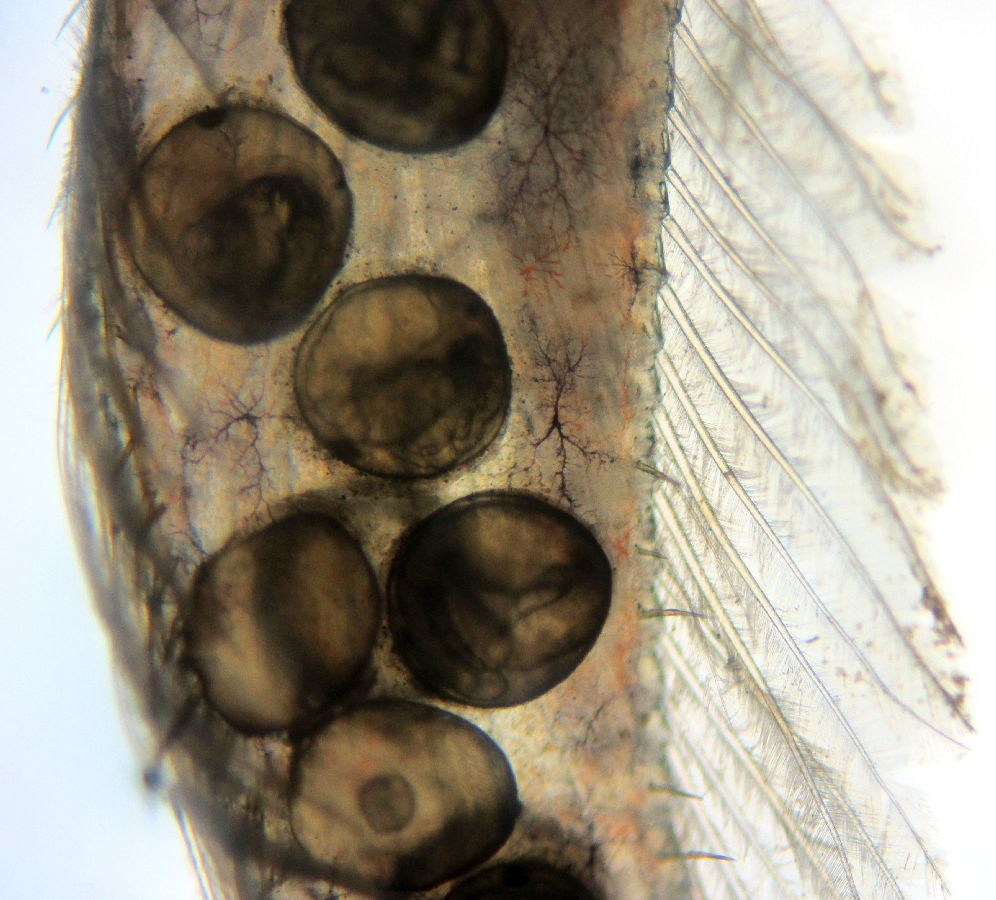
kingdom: Animalia
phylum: Arthropoda
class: Malacostraca
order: Decapoda
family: Crangonidae
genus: Sclerocrangon
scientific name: Sclerocrangon boreas
